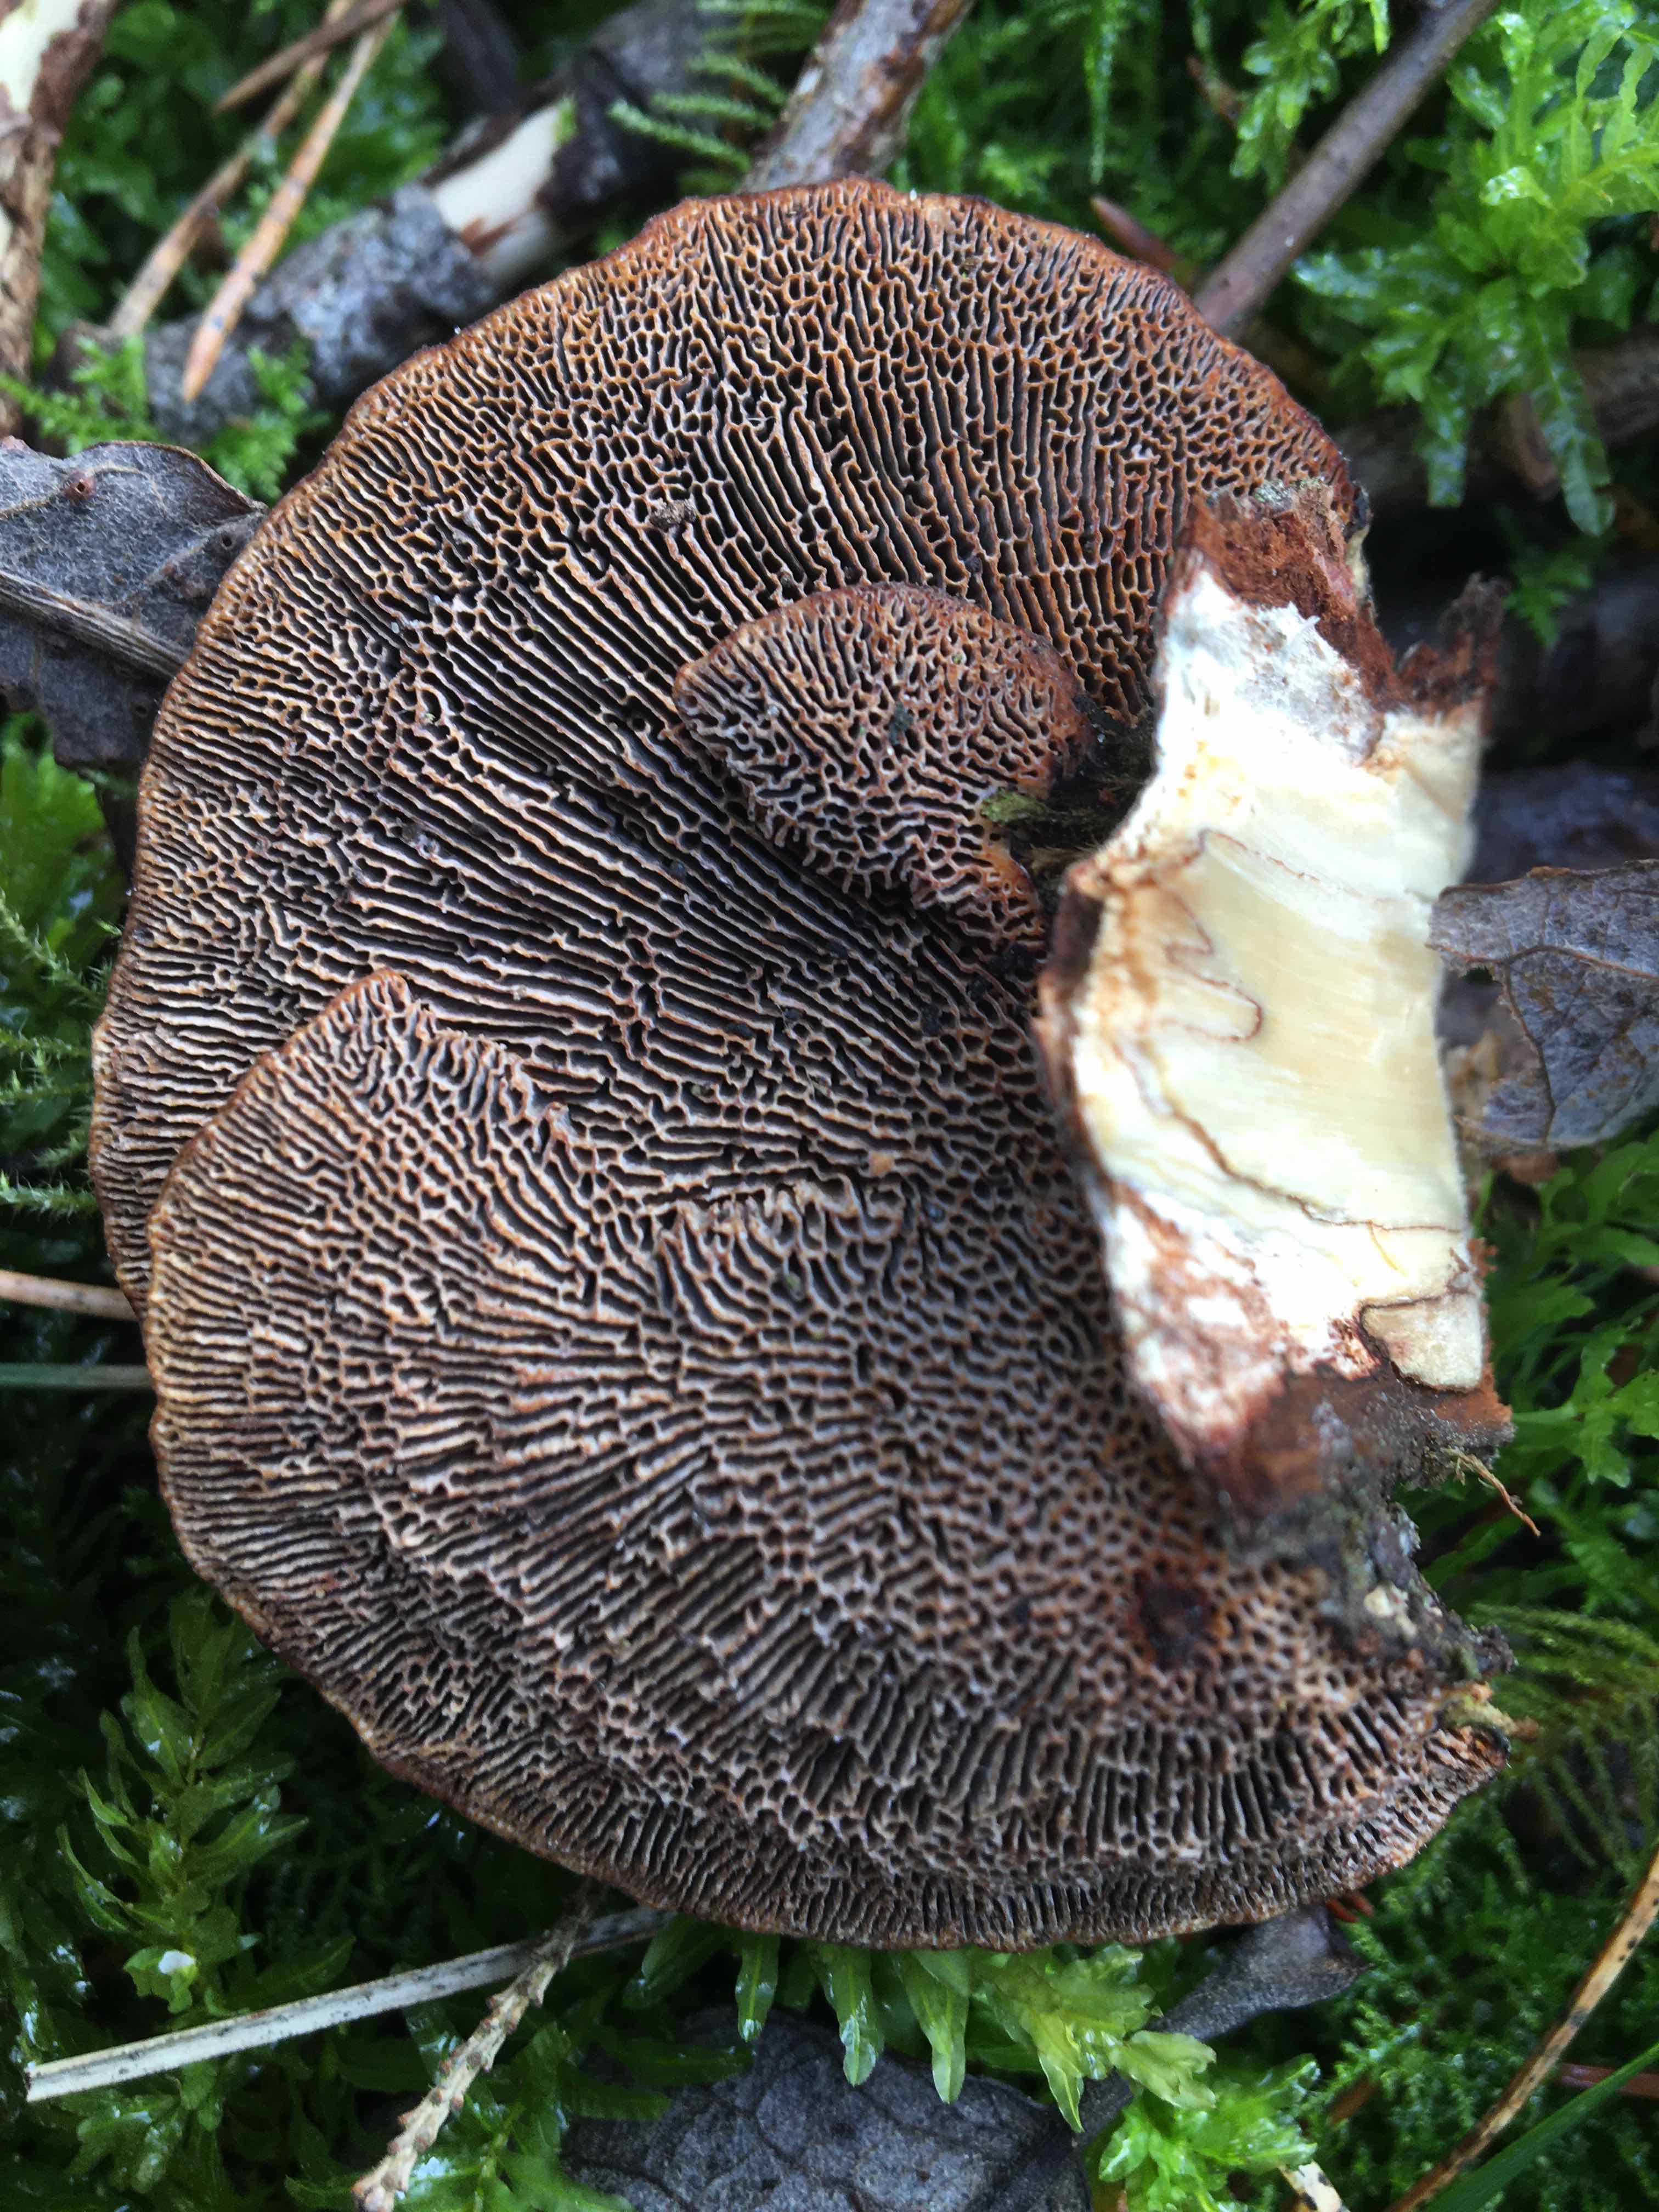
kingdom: Fungi
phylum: Basidiomycota
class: Agaricomycetes
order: Polyporales
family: Polyporaceae
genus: Daedaleopsis
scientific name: Daedaleopsis confragosa
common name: rødmende læderporesvamp
